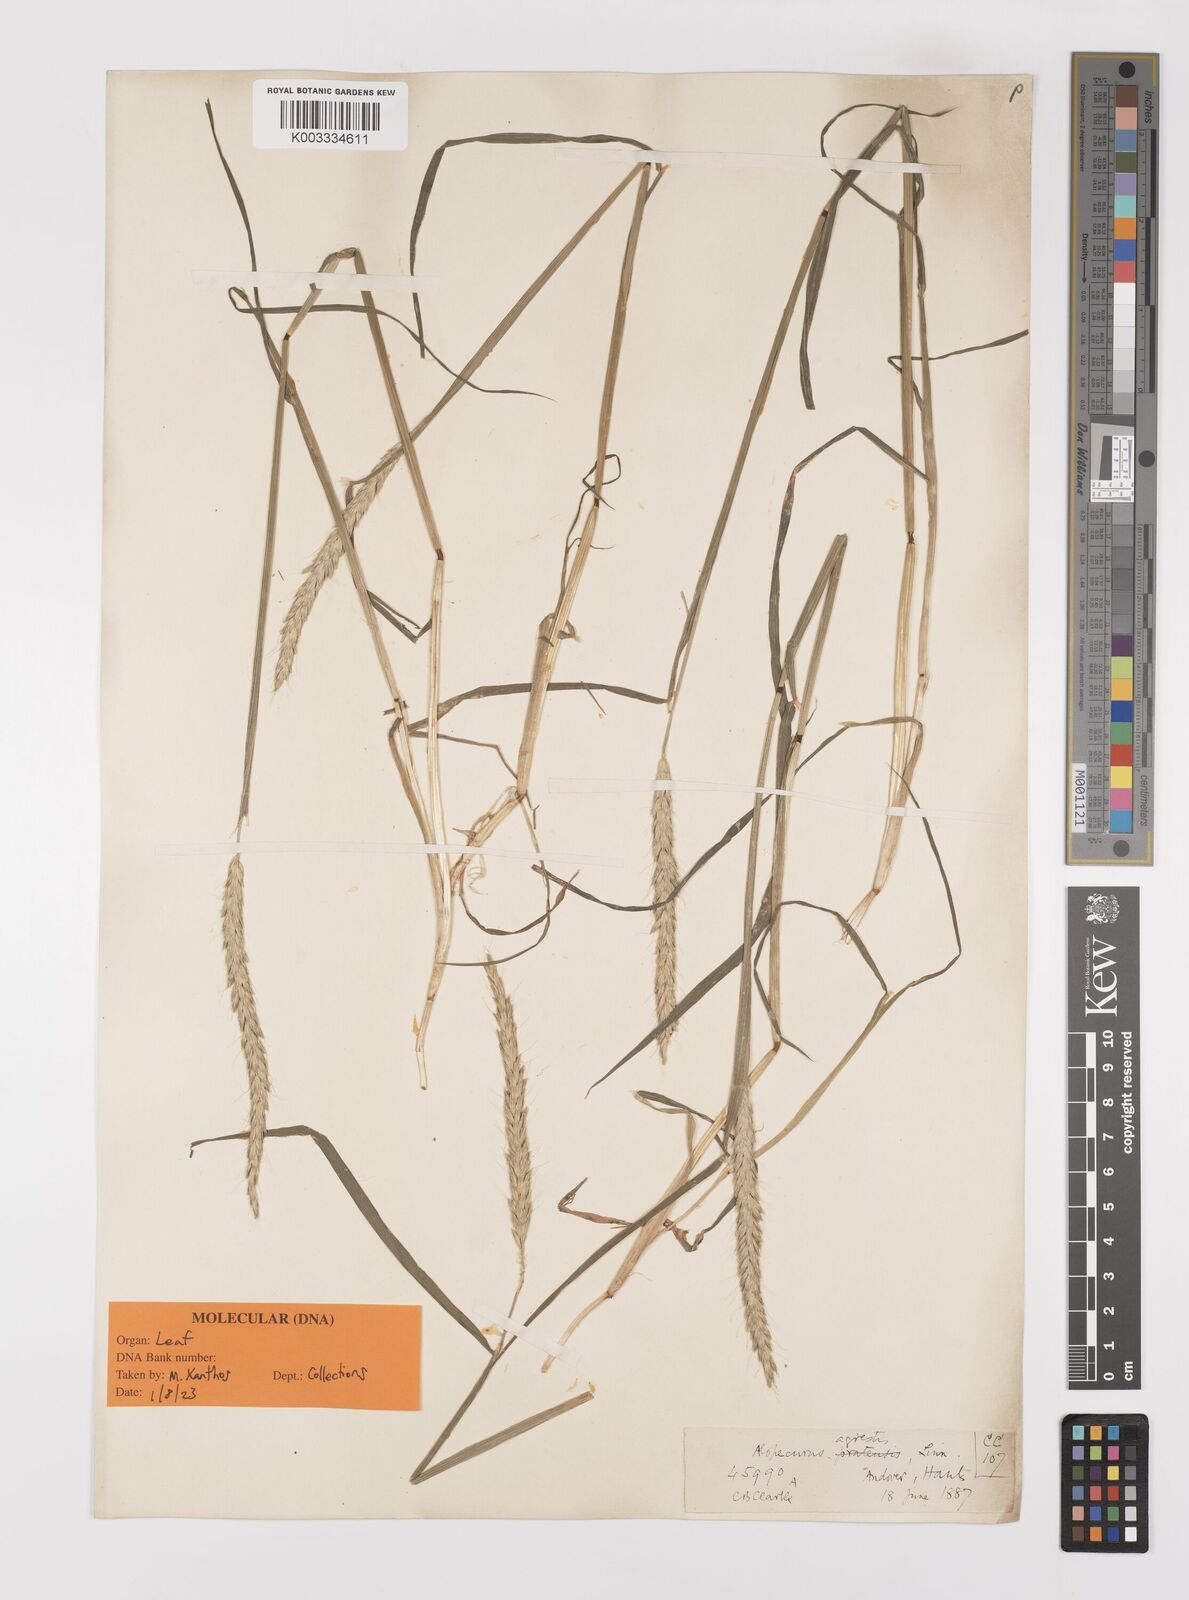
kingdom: Plantae
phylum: Tracheophyta
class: Liliopsida
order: Poales
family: Poaceae
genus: Alopecurus
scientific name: Alopecurus myosuroides
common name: Black-grass
